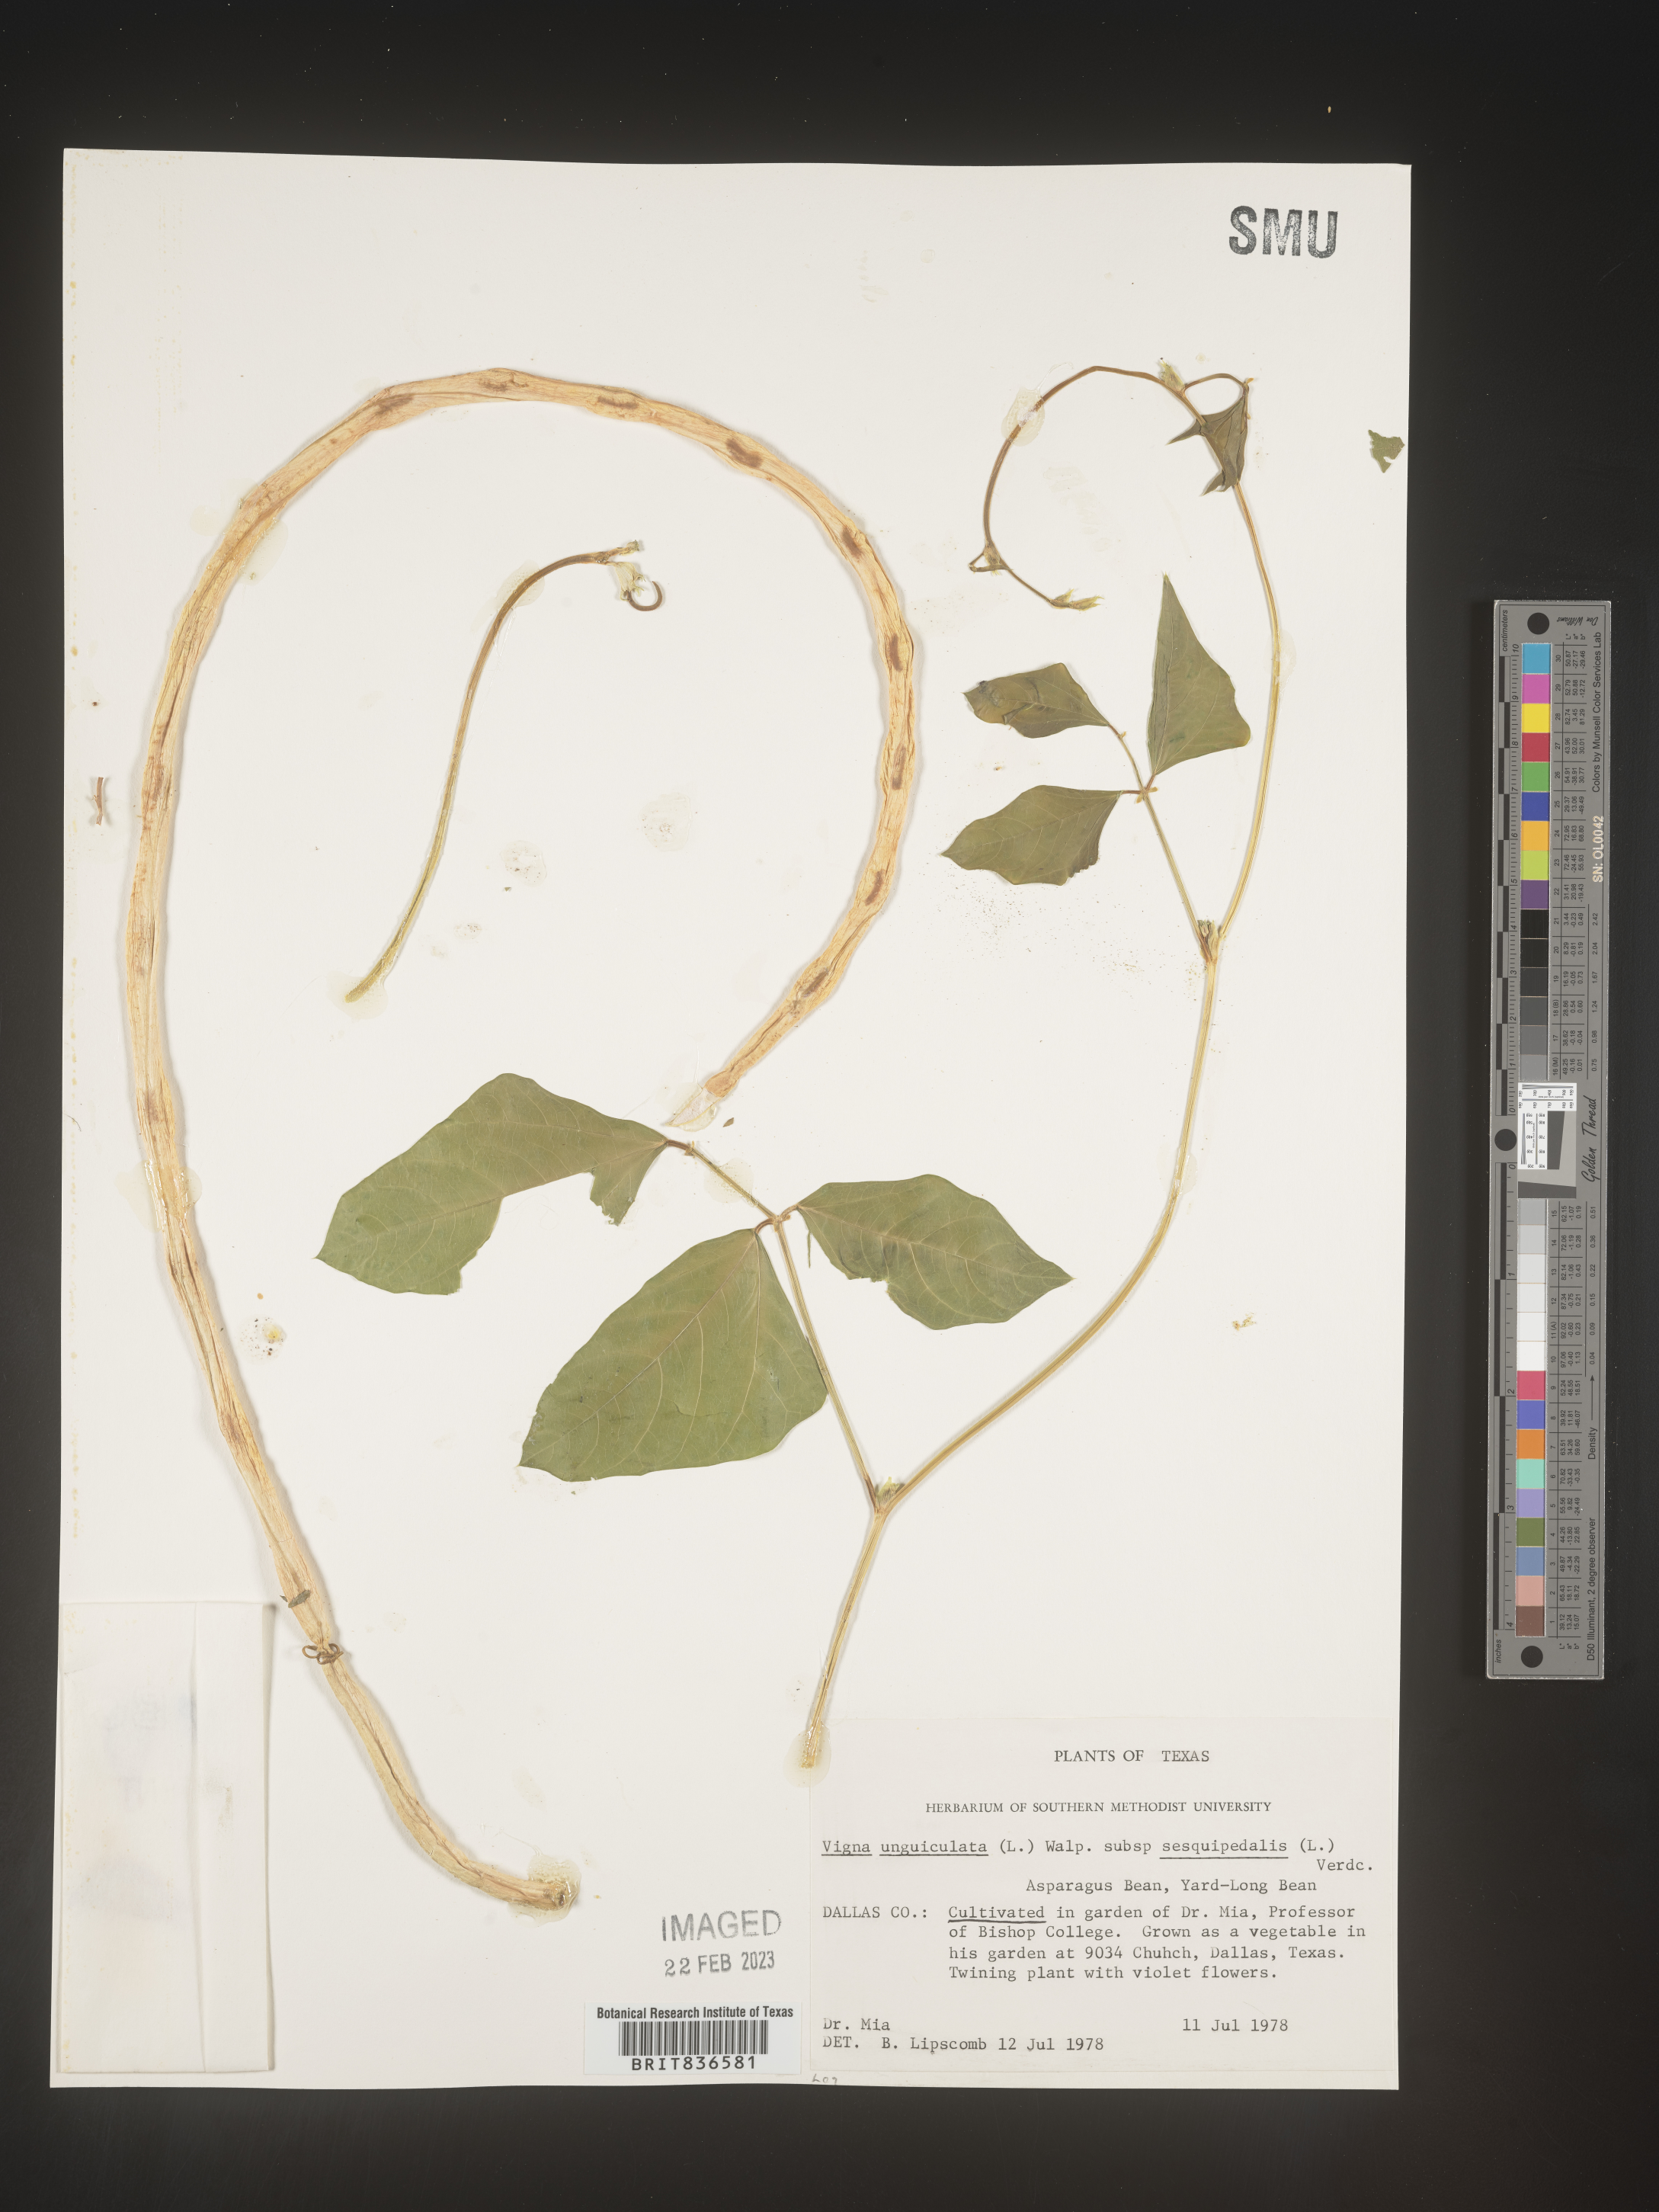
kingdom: Plantae
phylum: Tracheophyta
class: Magnoliopsida
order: Fabales
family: Fabaceae
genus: Vigna
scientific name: Vigna
